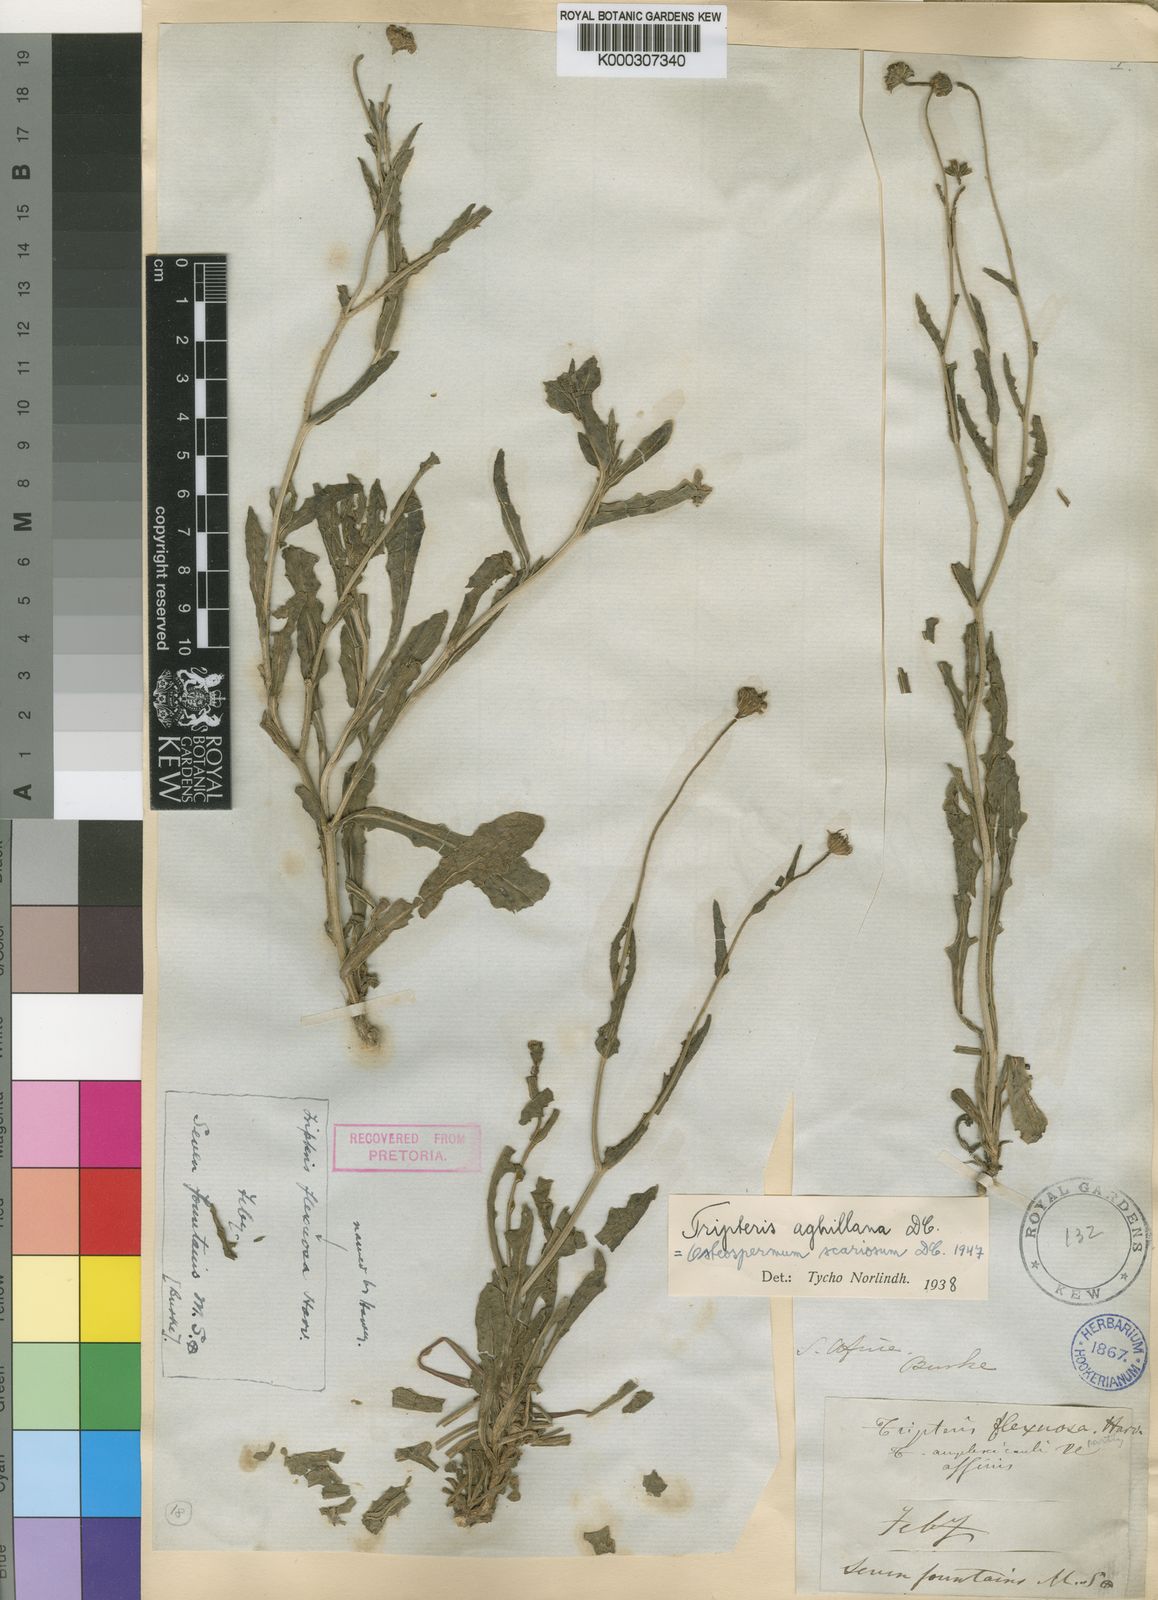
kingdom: Plantae
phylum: Tracheophyta
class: Magnoliopsida
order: Asterales
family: Asteraceae
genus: Osteospermum
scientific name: Osteospermum scariosum
